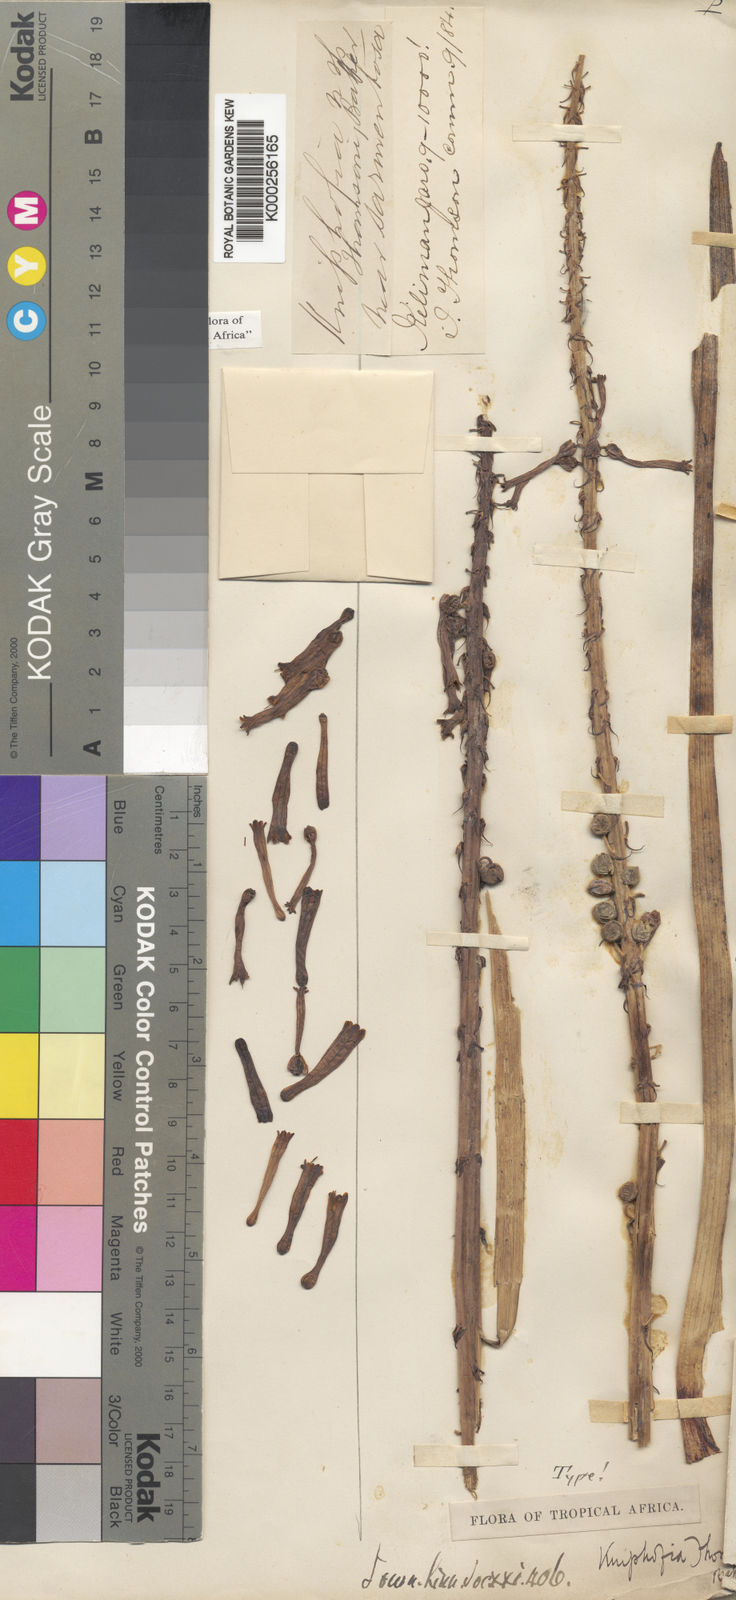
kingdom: Plantae
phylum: Tracheophyta
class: Liliopsida
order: Asparagales
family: Asphodelaceae
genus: Kniphofia
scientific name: Kniphofia thomsonii
